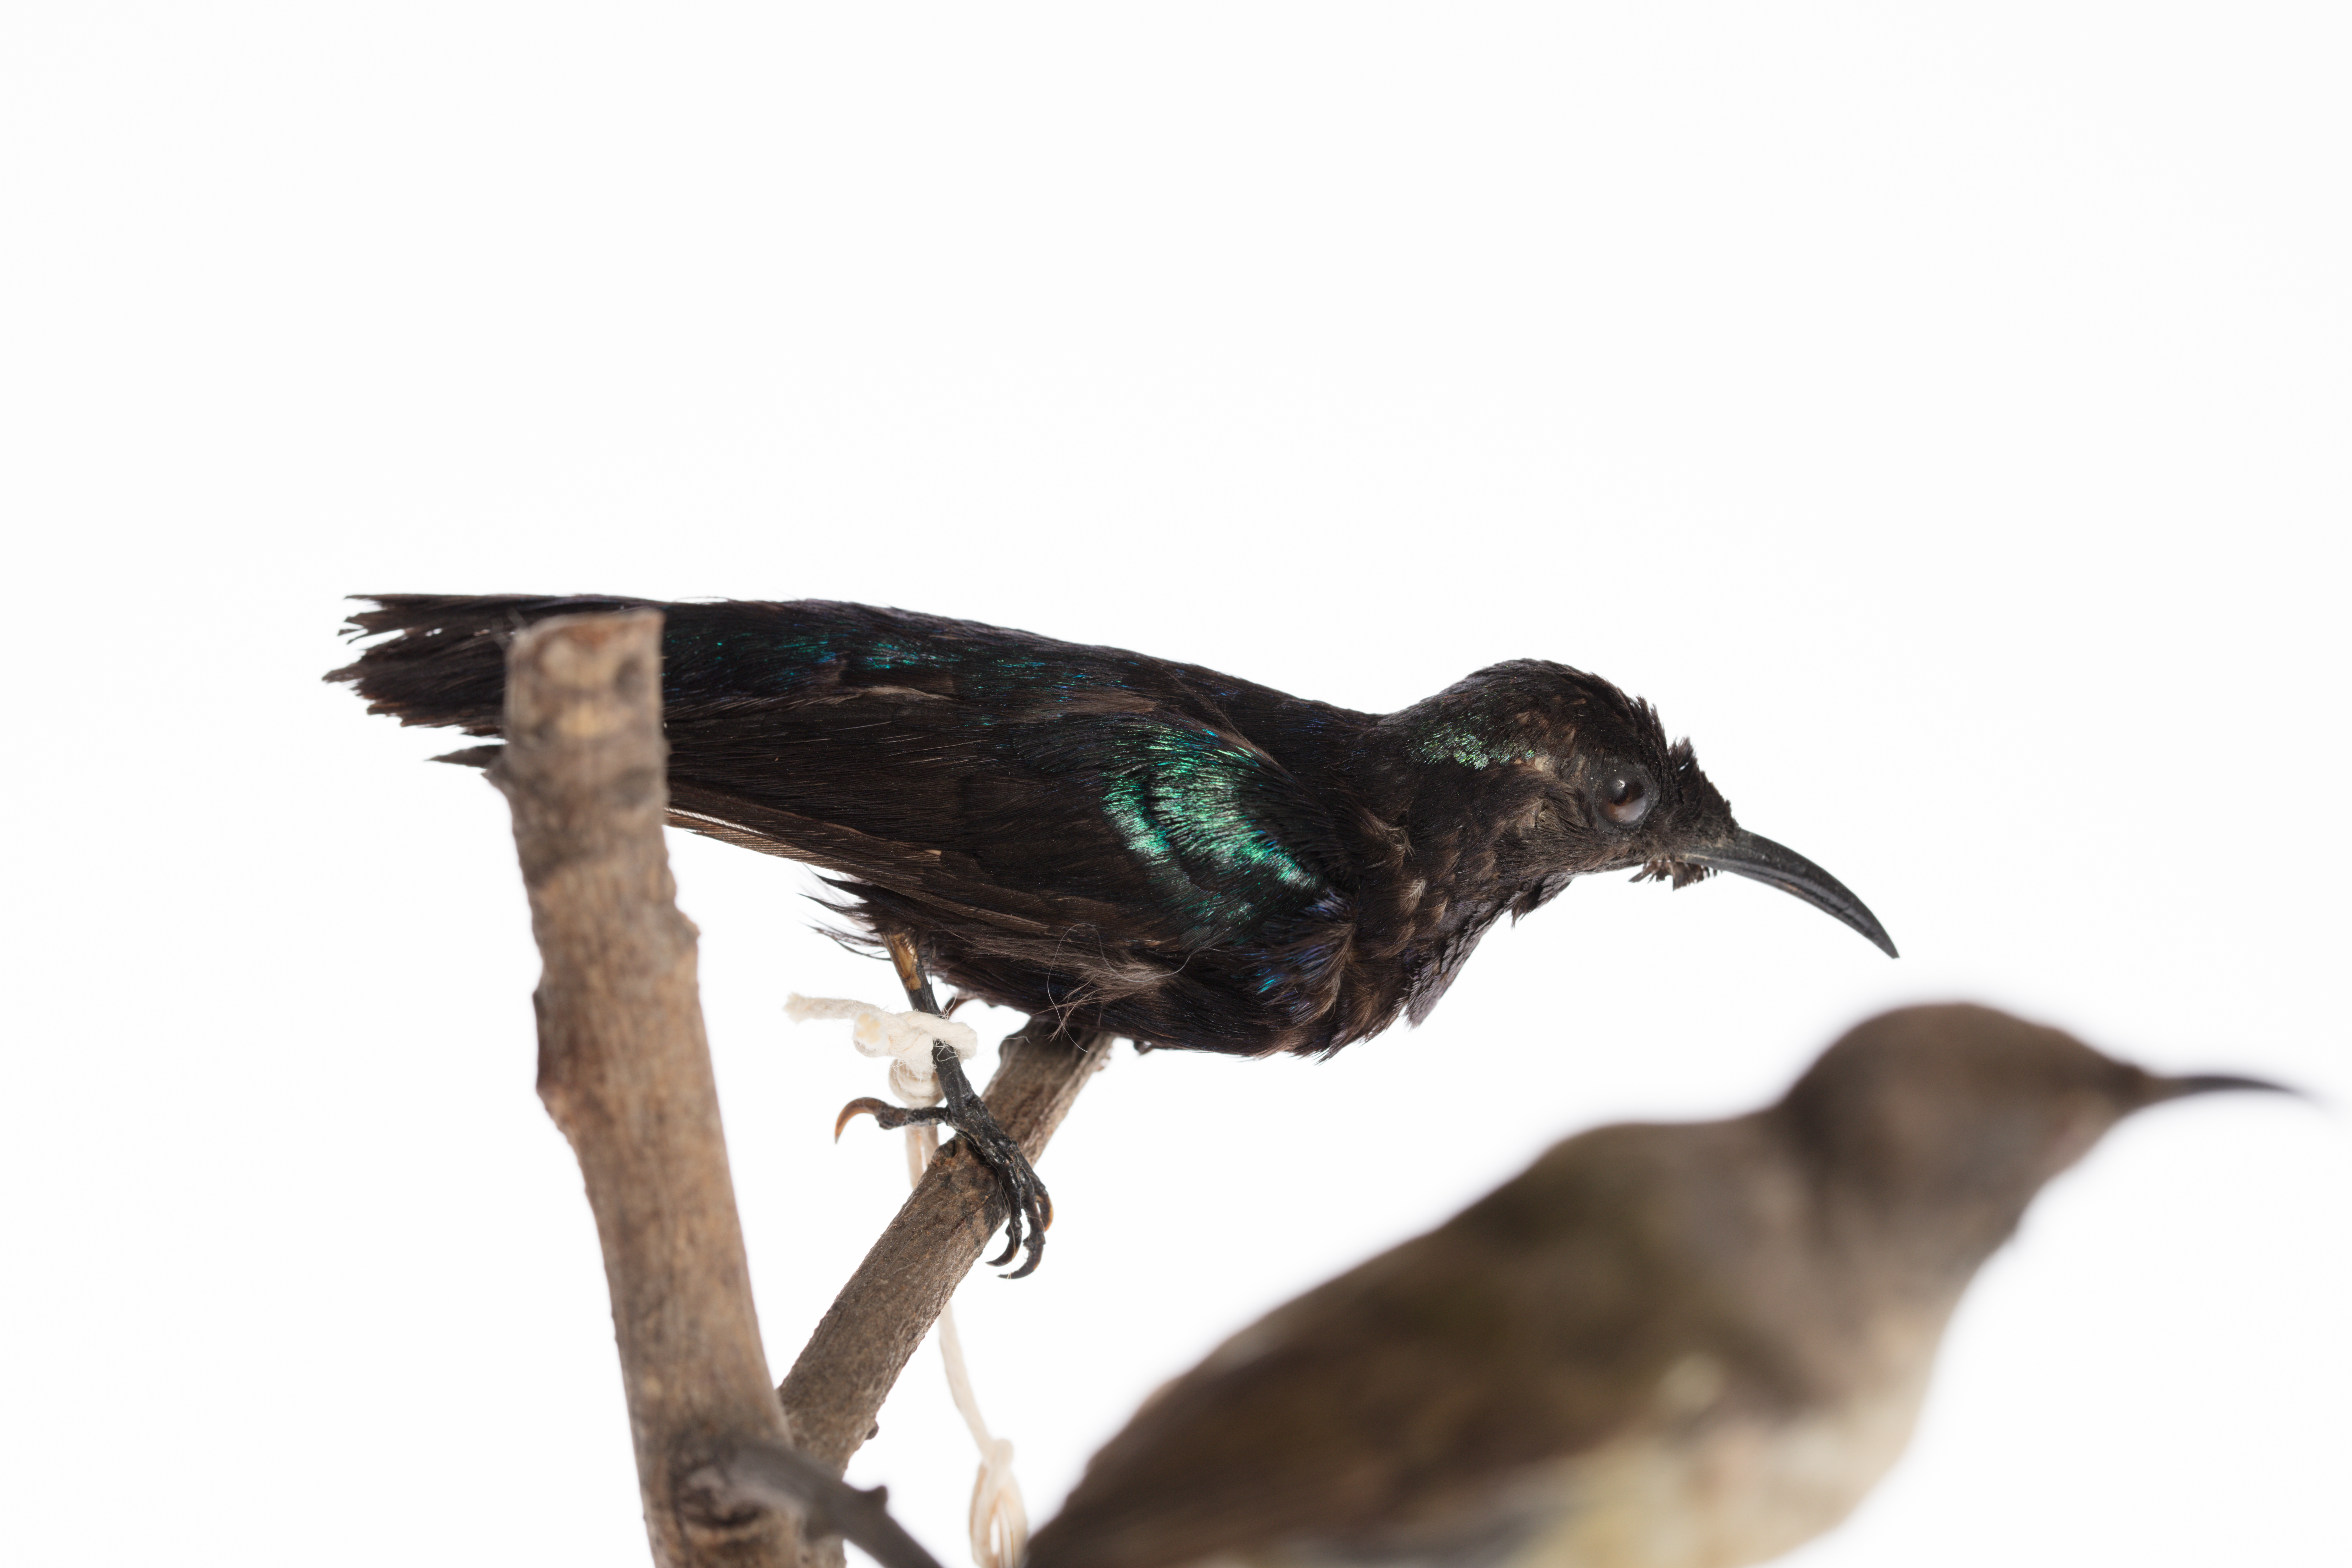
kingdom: Animalia
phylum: Chordata
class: Aves
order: Passeriformes
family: Nectariniidae
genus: Nectarinia
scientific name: Nectarinia
